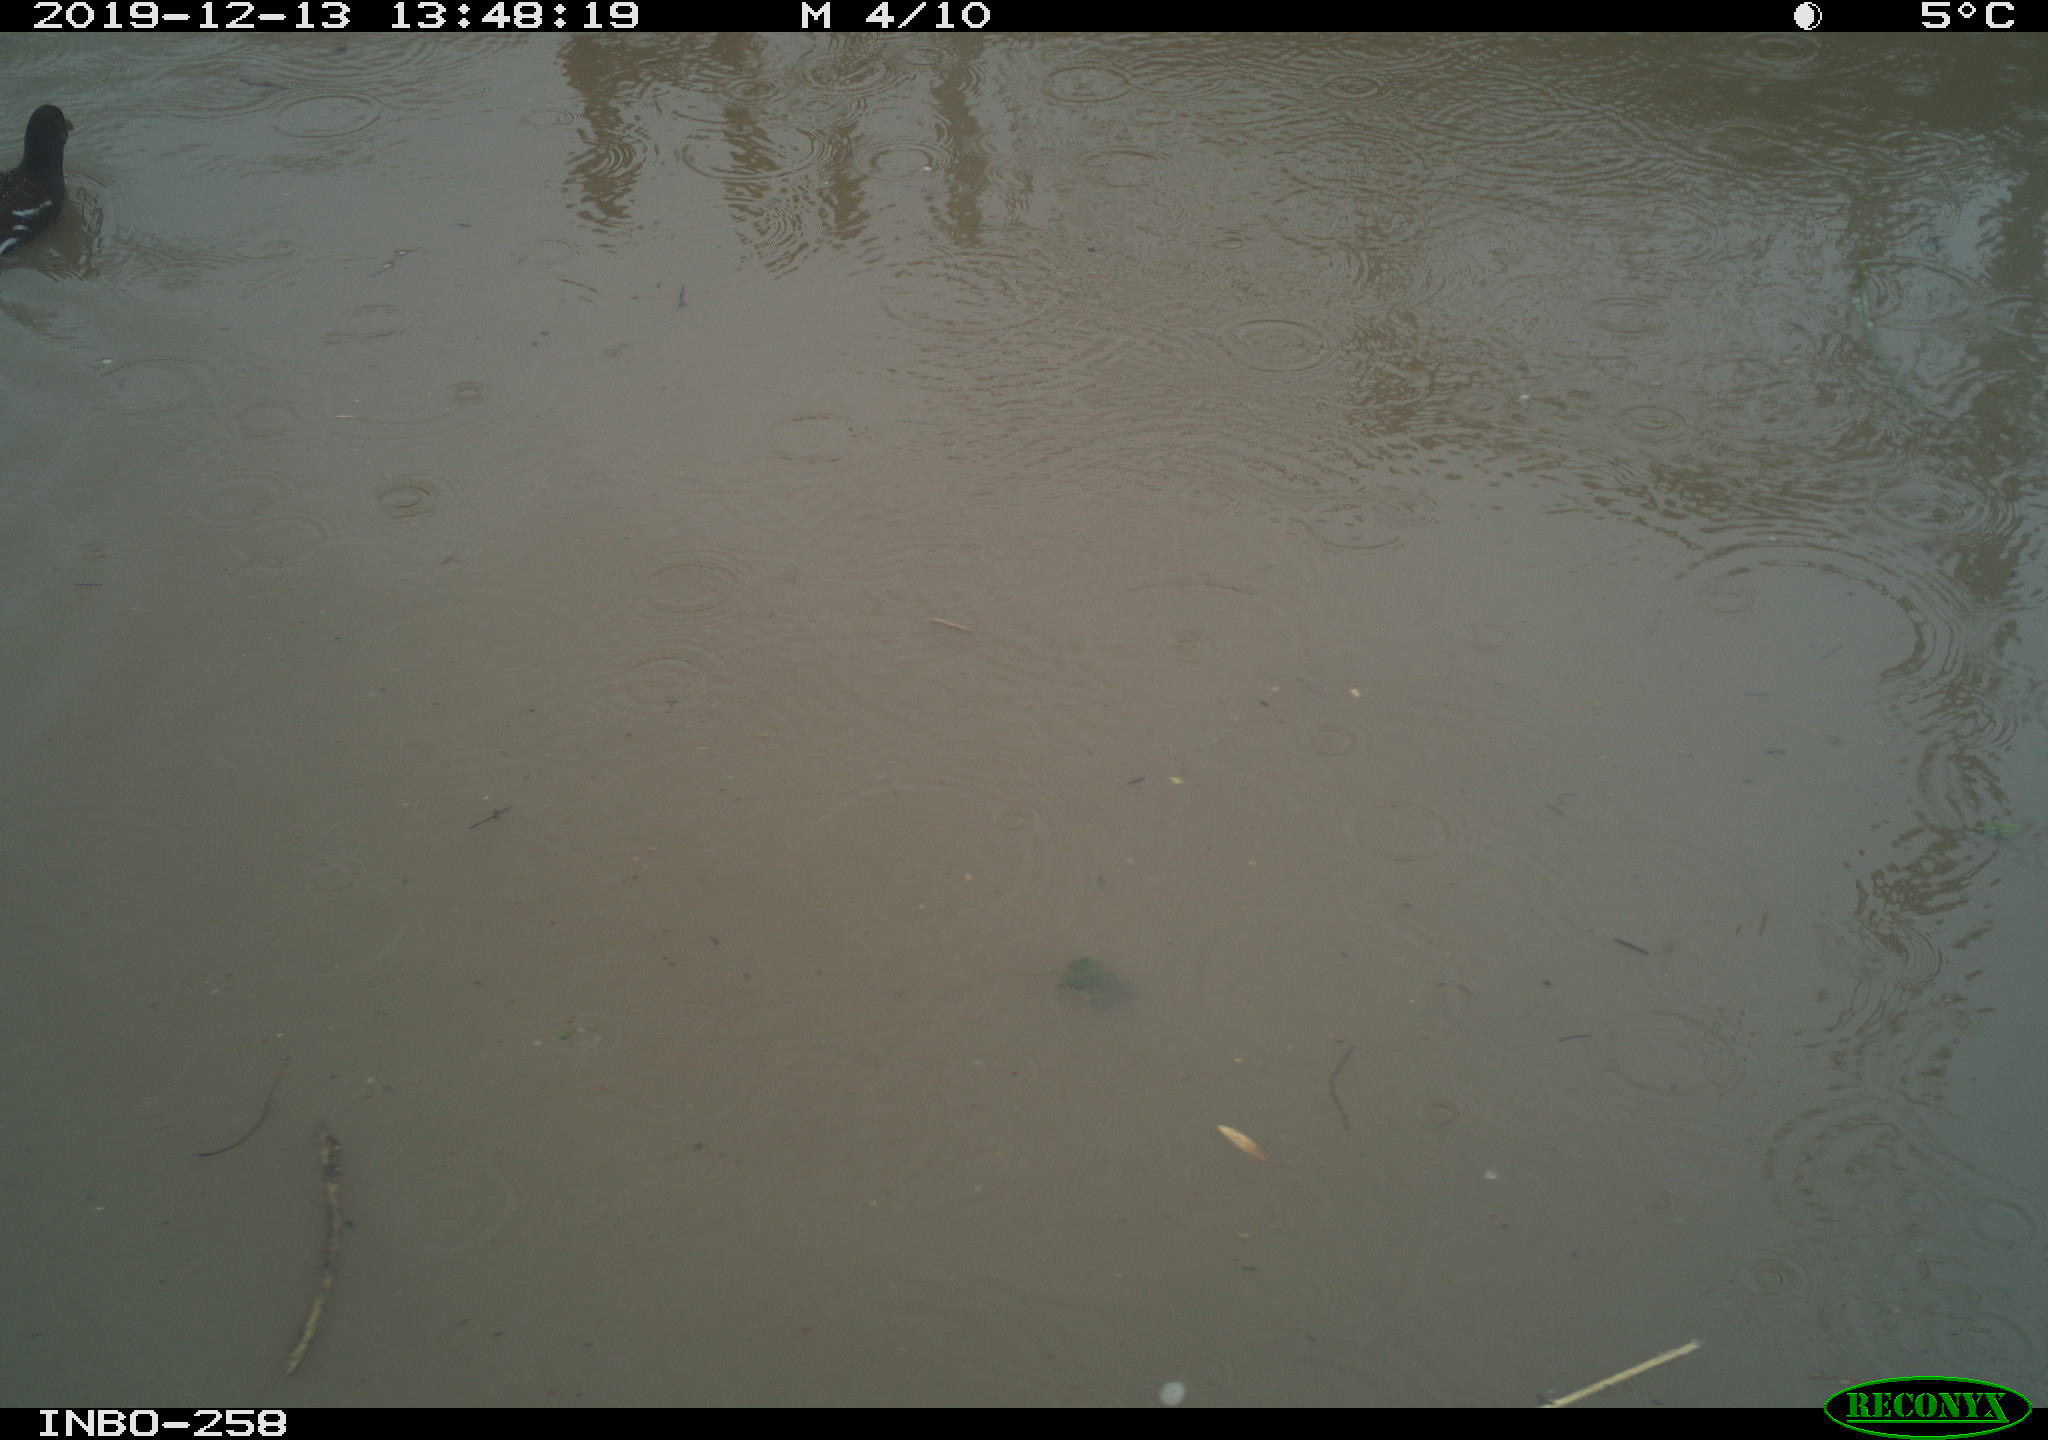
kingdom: Animalia
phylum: Chordata
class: Aves
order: Gruiformes
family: Rallidae
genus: Gallinula
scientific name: Gallinula chloropus
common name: Common moorhen
